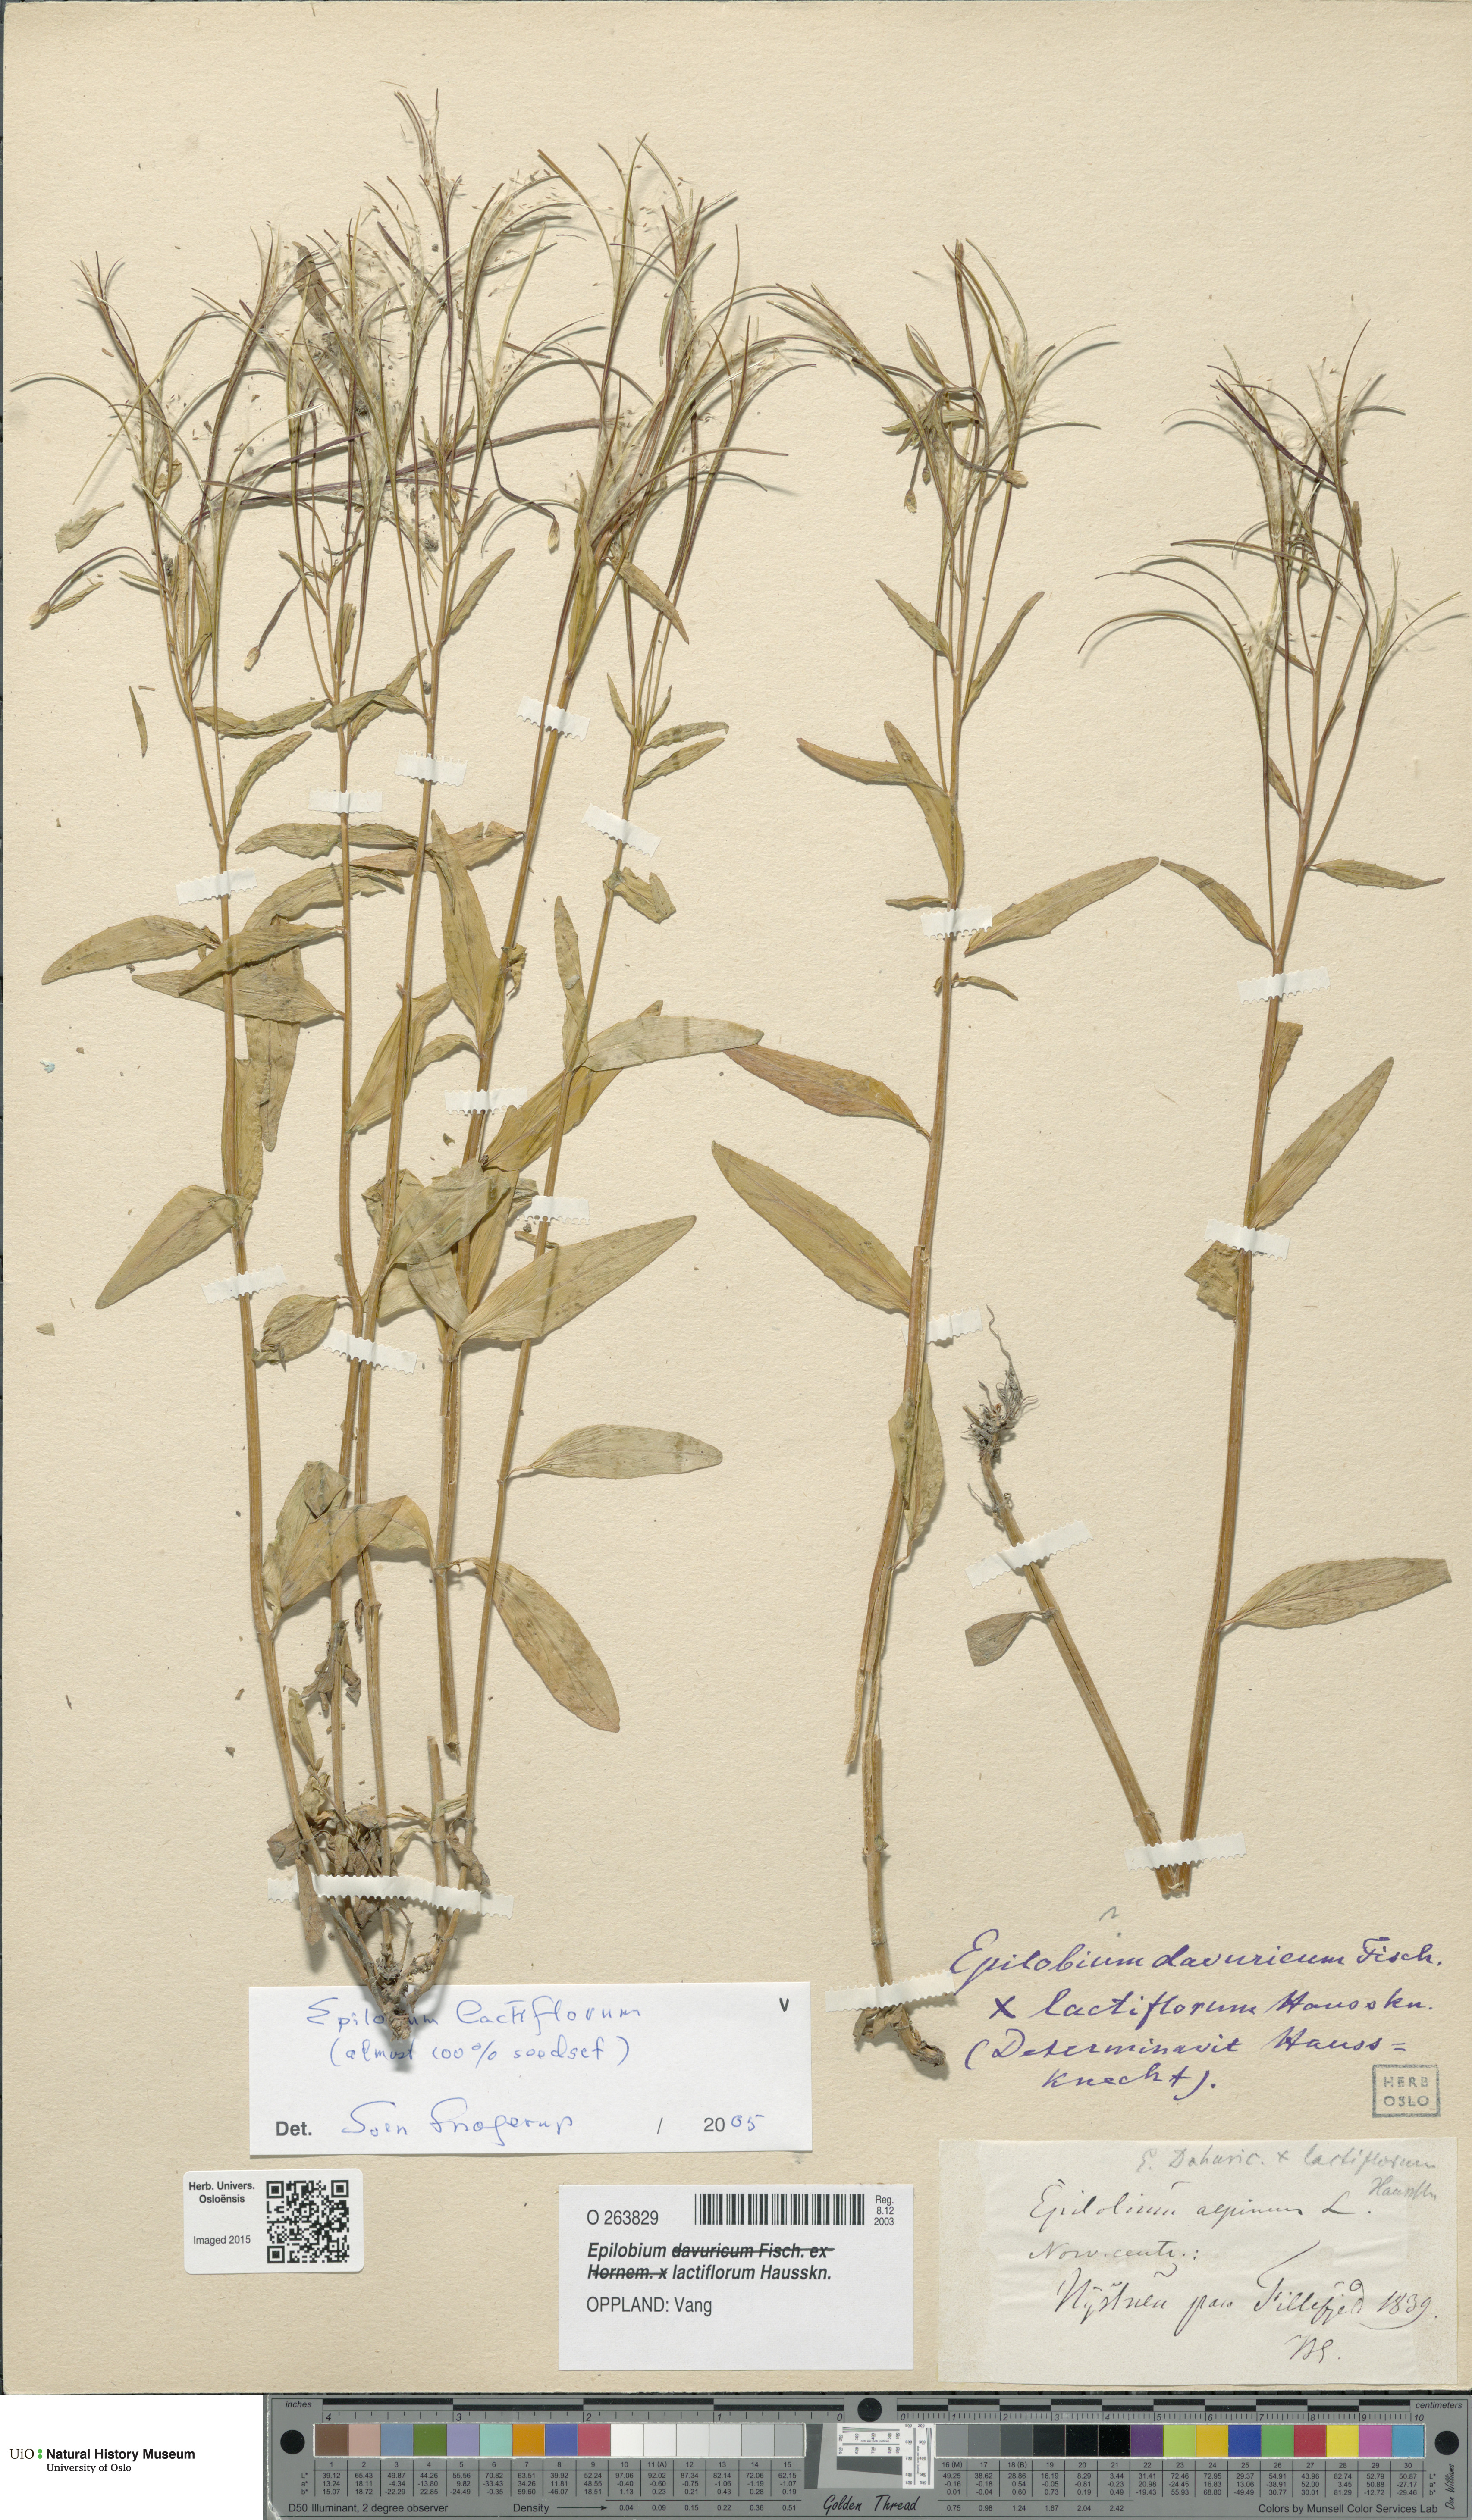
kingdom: Plantae
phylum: Tracheophyta
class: Magnoliopsida
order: Myrtales
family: Onagraceae
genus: Epilobium
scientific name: Epilobium lactiflorum
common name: Milkflower willowherb
